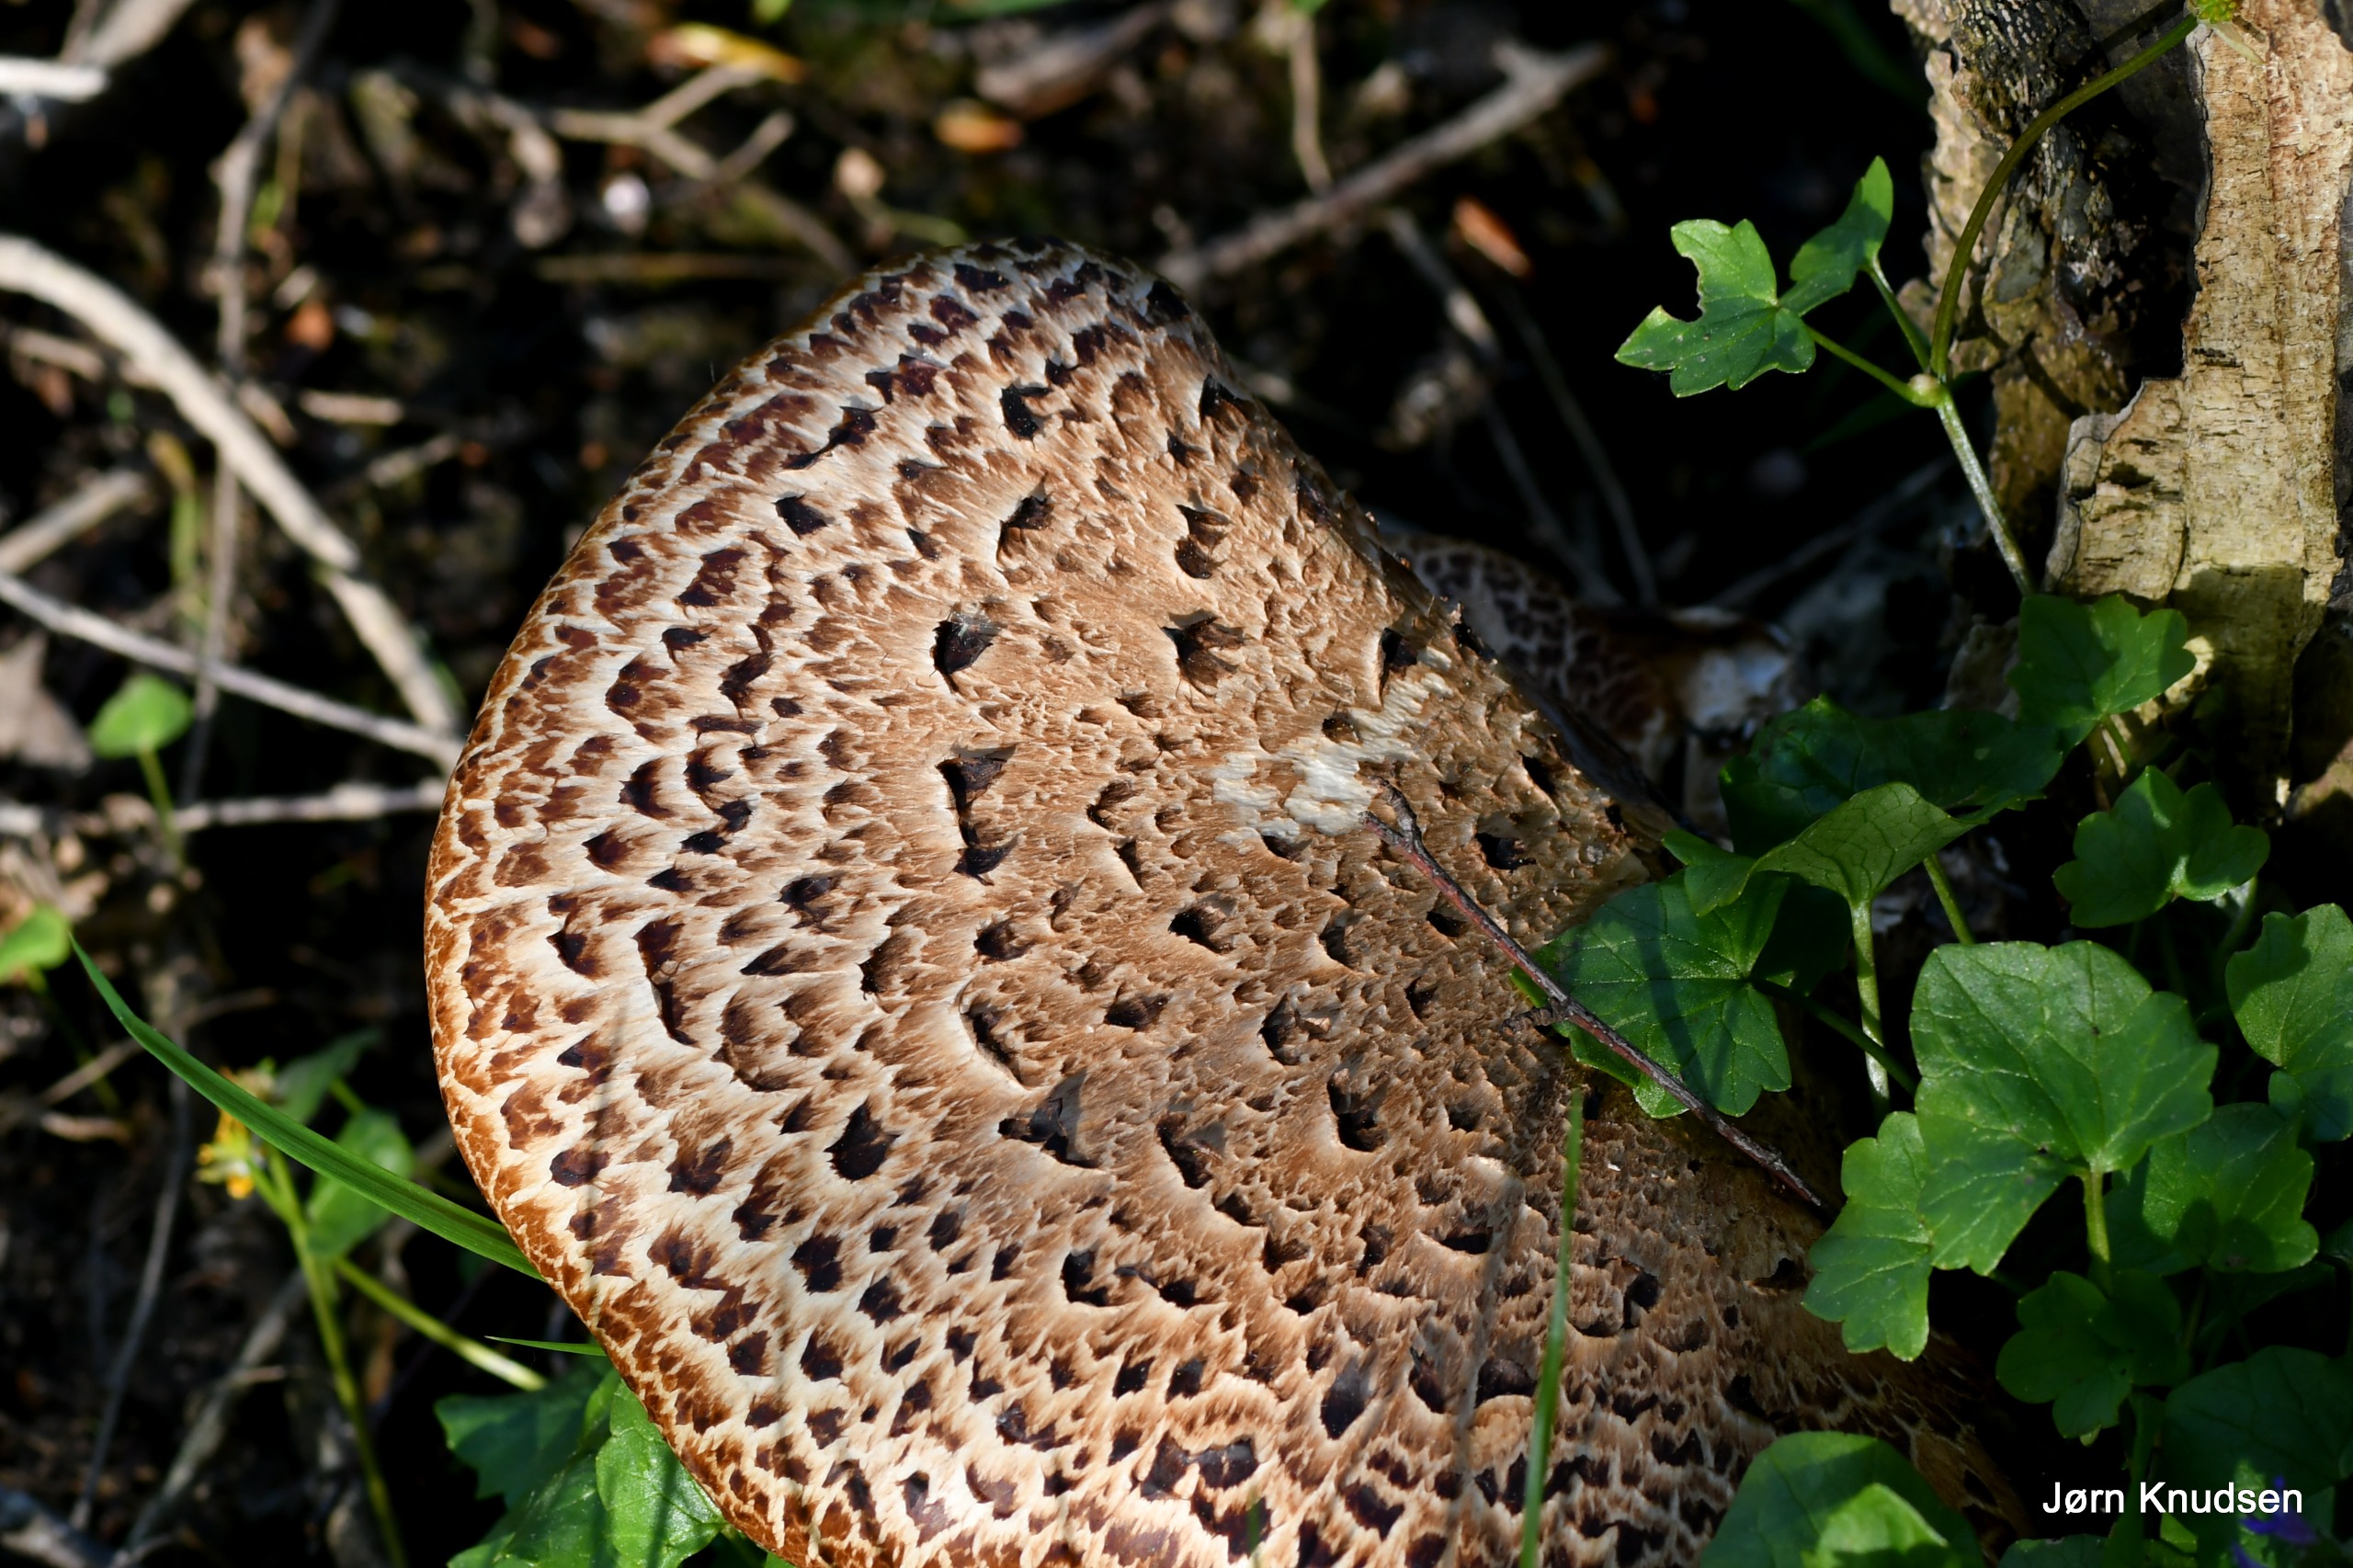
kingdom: Fungi
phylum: Basidiomycota
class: Agaricomycetes
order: Polyporales
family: Polyporaceae
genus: Cerioporus
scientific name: Cerioporus squamosus
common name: Skællet stilkporesvamp
